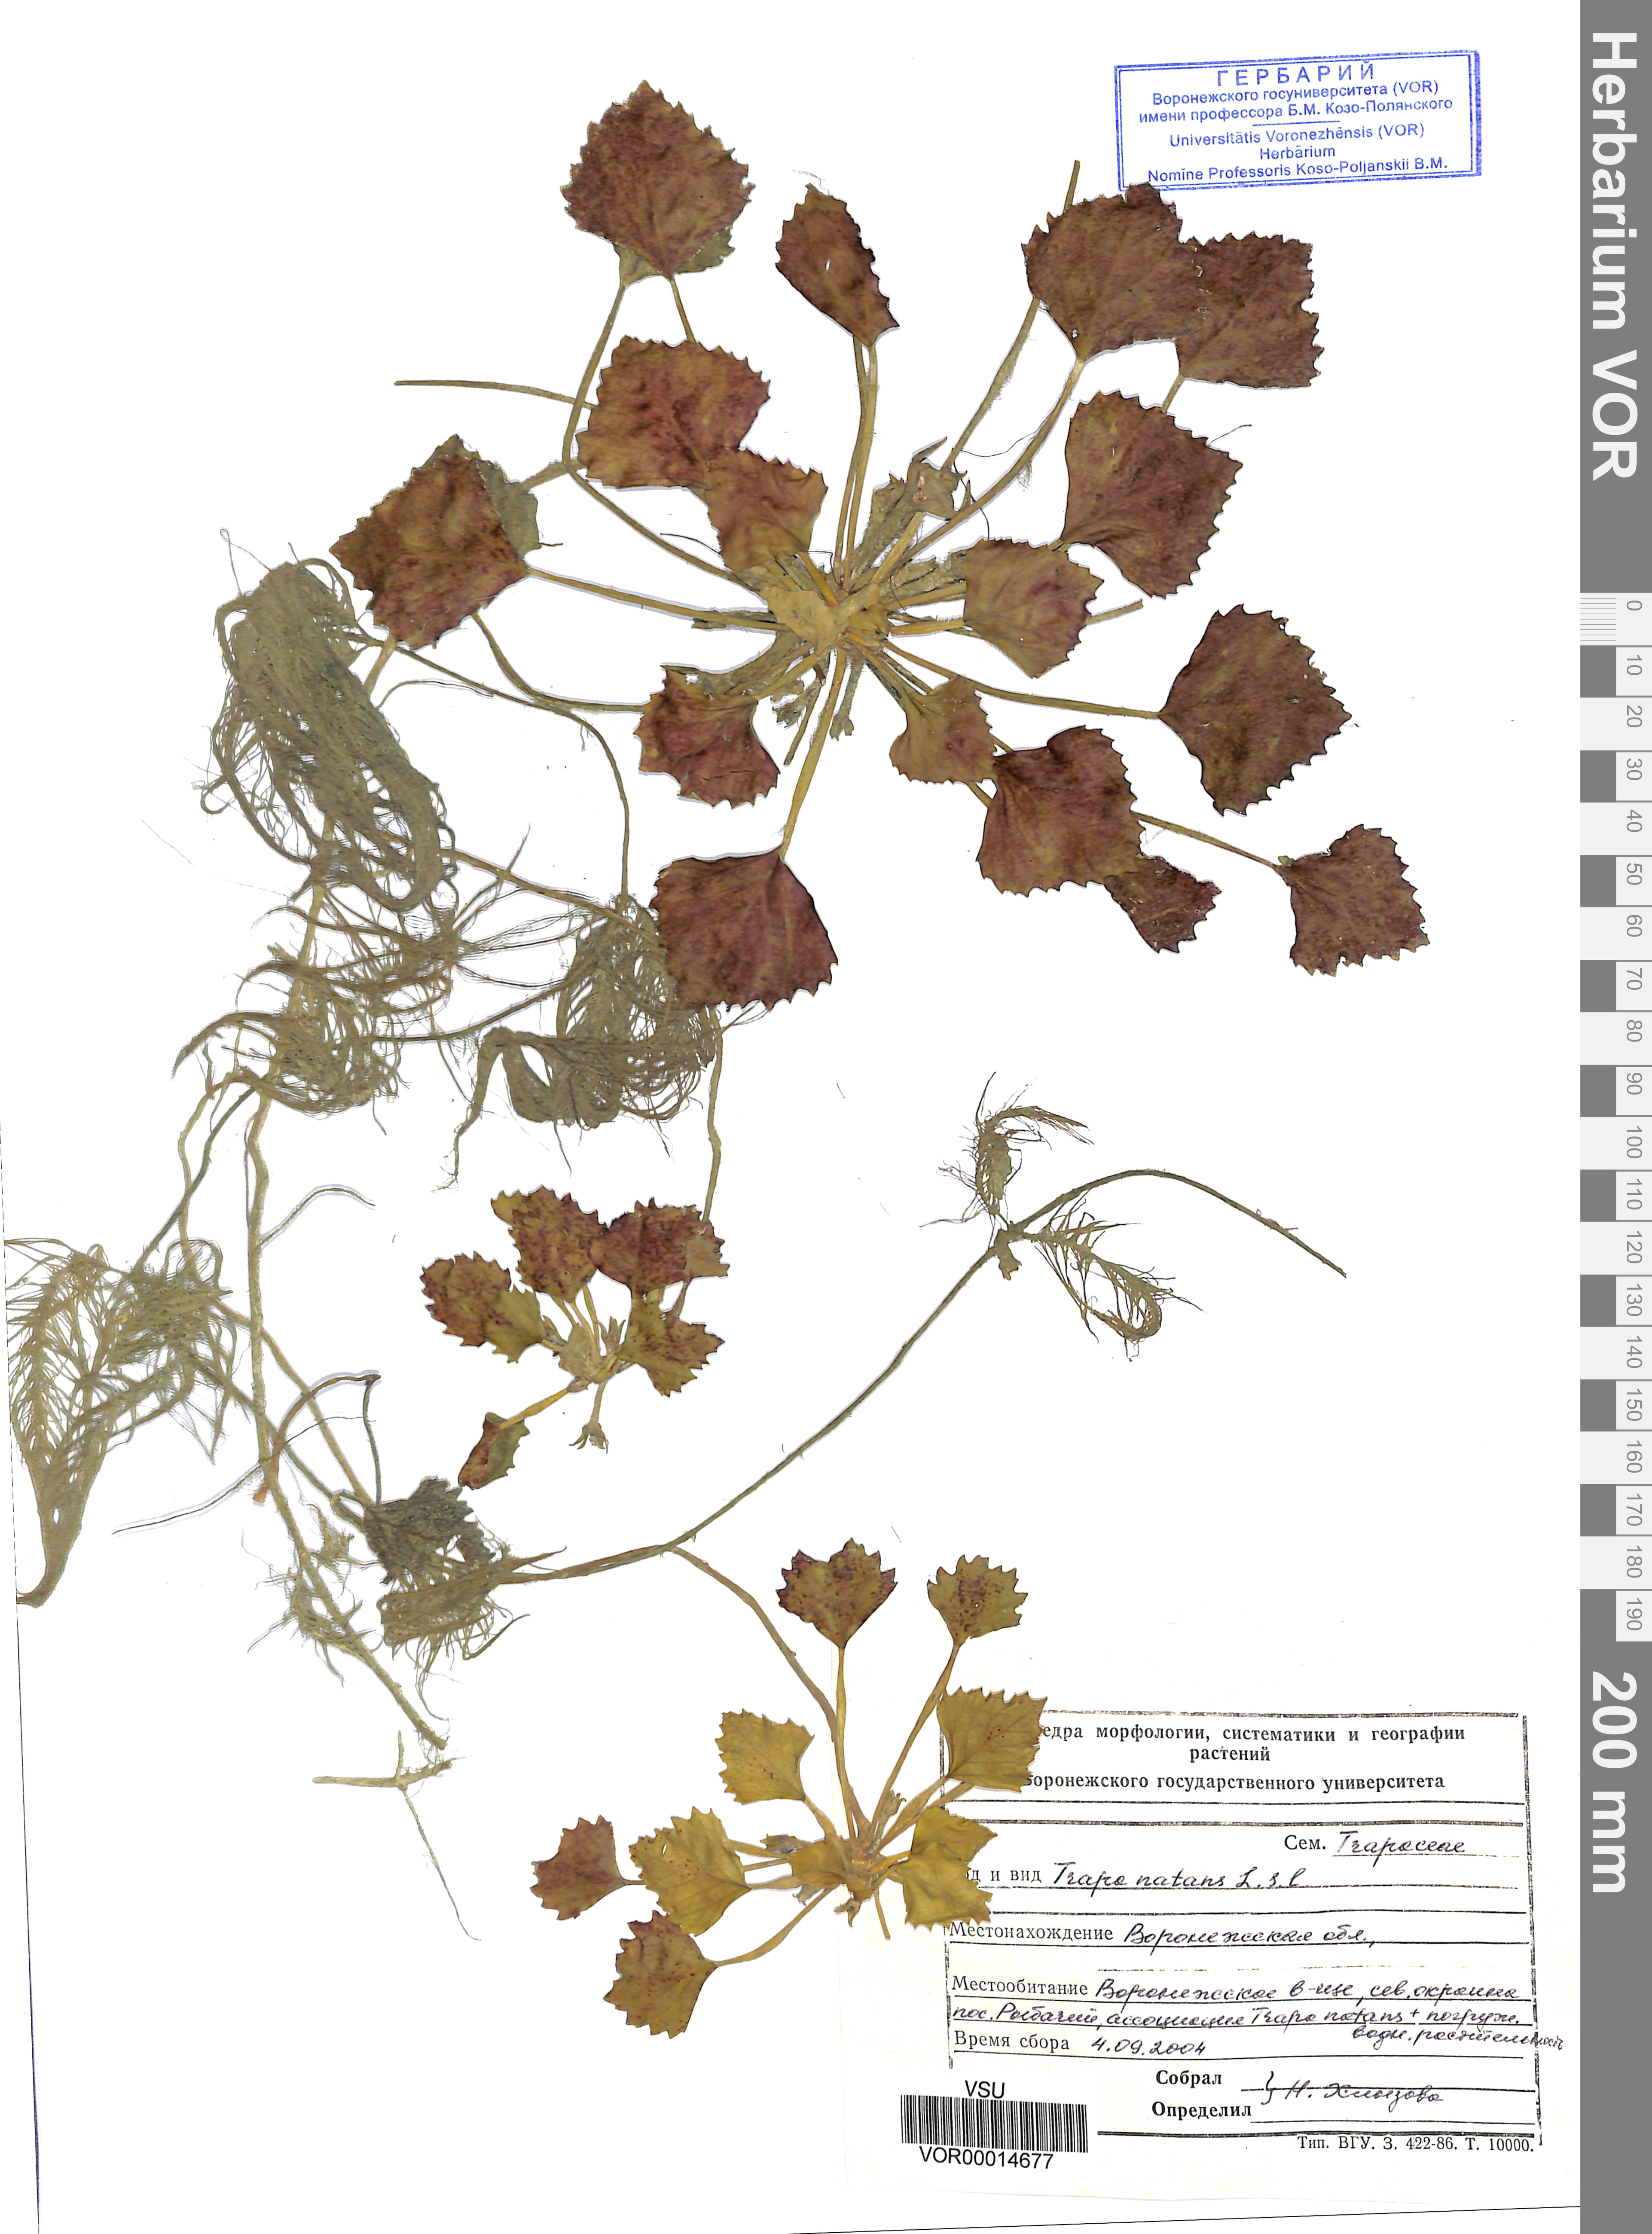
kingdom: Plantae
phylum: Tracheophyta
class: Magnoliopsida
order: Myrtales
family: Lythraceae
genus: Trapa
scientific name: Trapa natans
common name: Water chestnut
